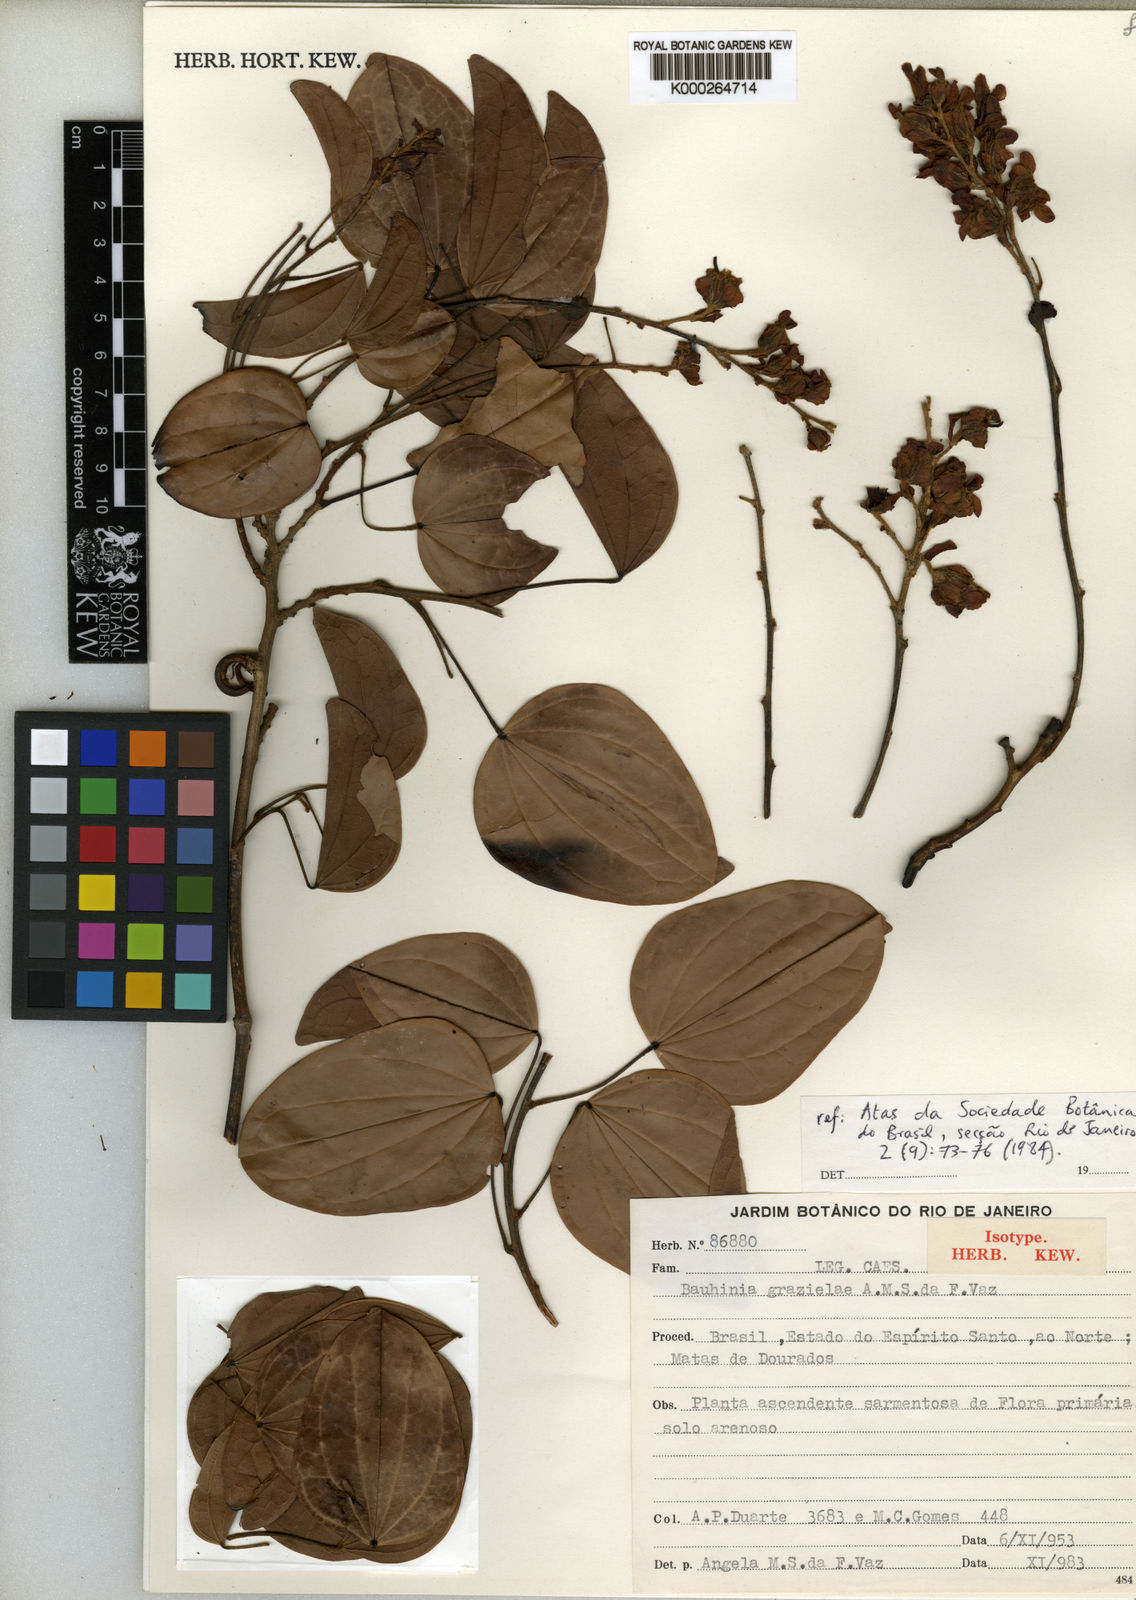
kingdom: Plantae
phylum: Tracheophyta
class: Magnoliopsida
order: Fabales
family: Fabaceae
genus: Schnella
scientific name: Schnella grazielae
